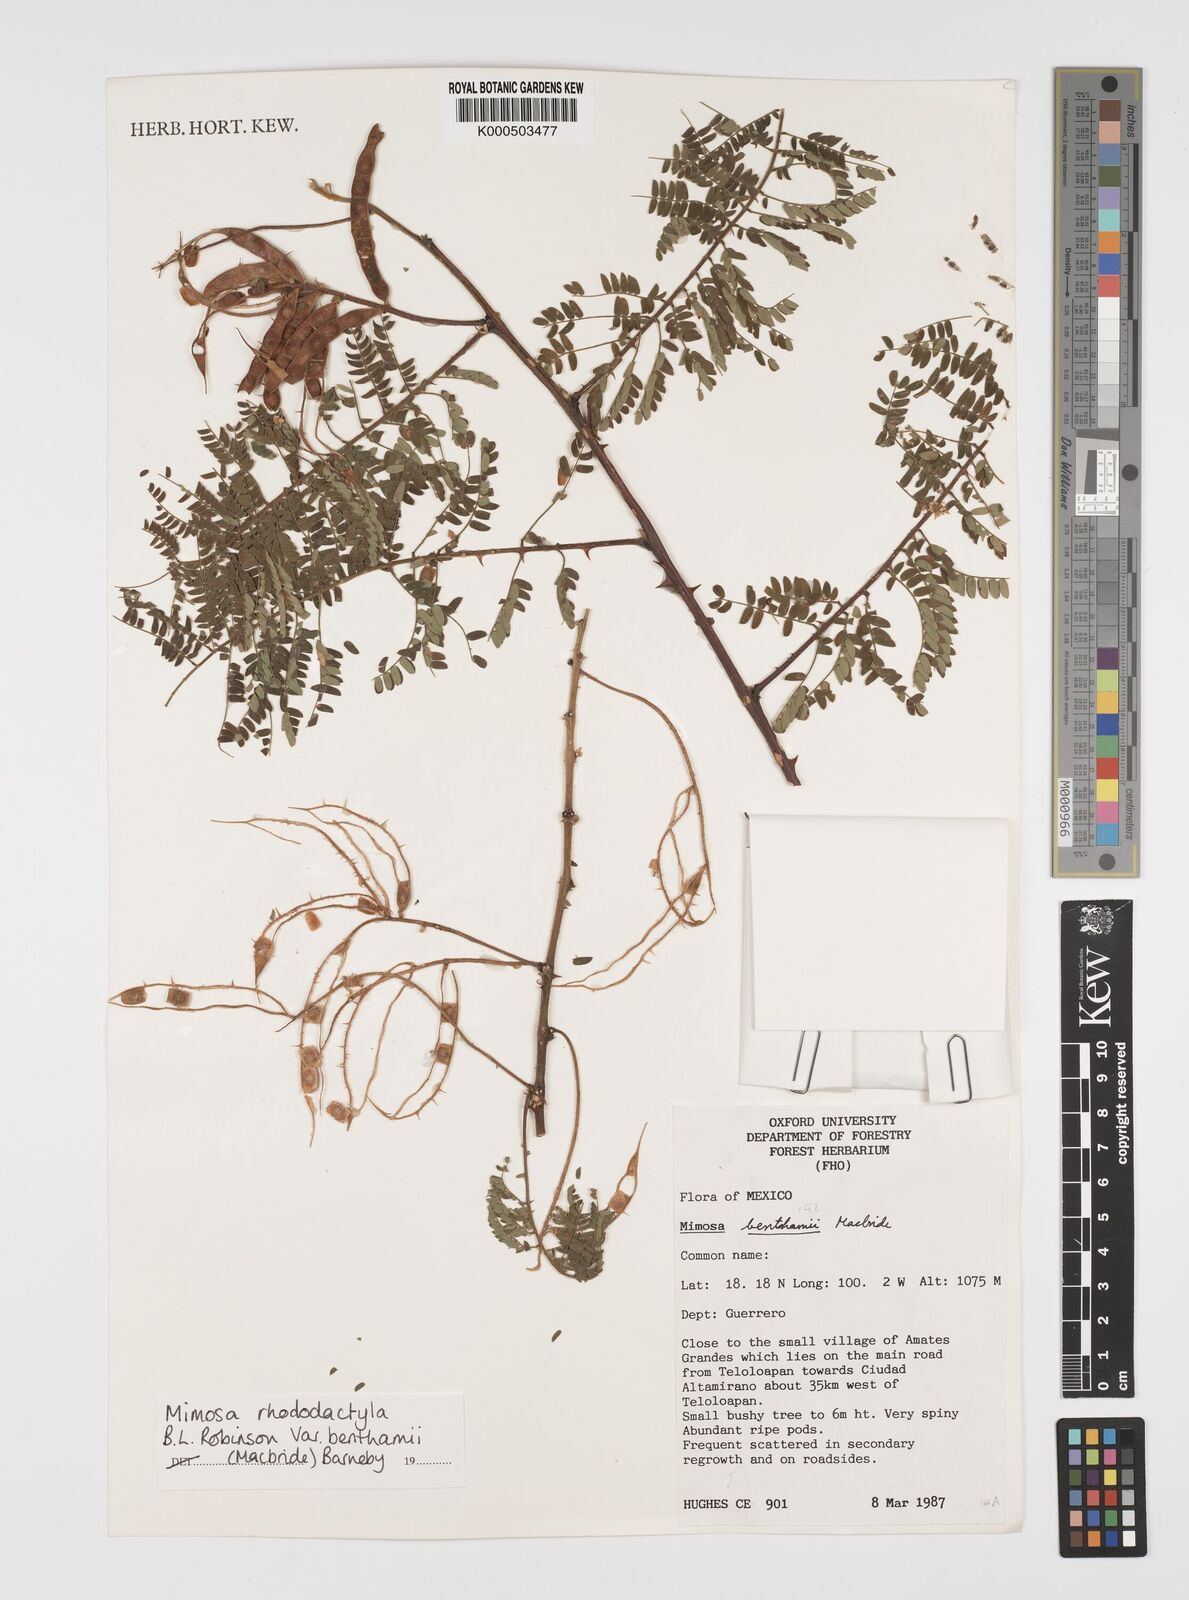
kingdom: Plantae
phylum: Tracheophyta
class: Magnoliopsida
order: Fabales
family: Fabaceae
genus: Mimosa
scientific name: Mimosa benthamii
